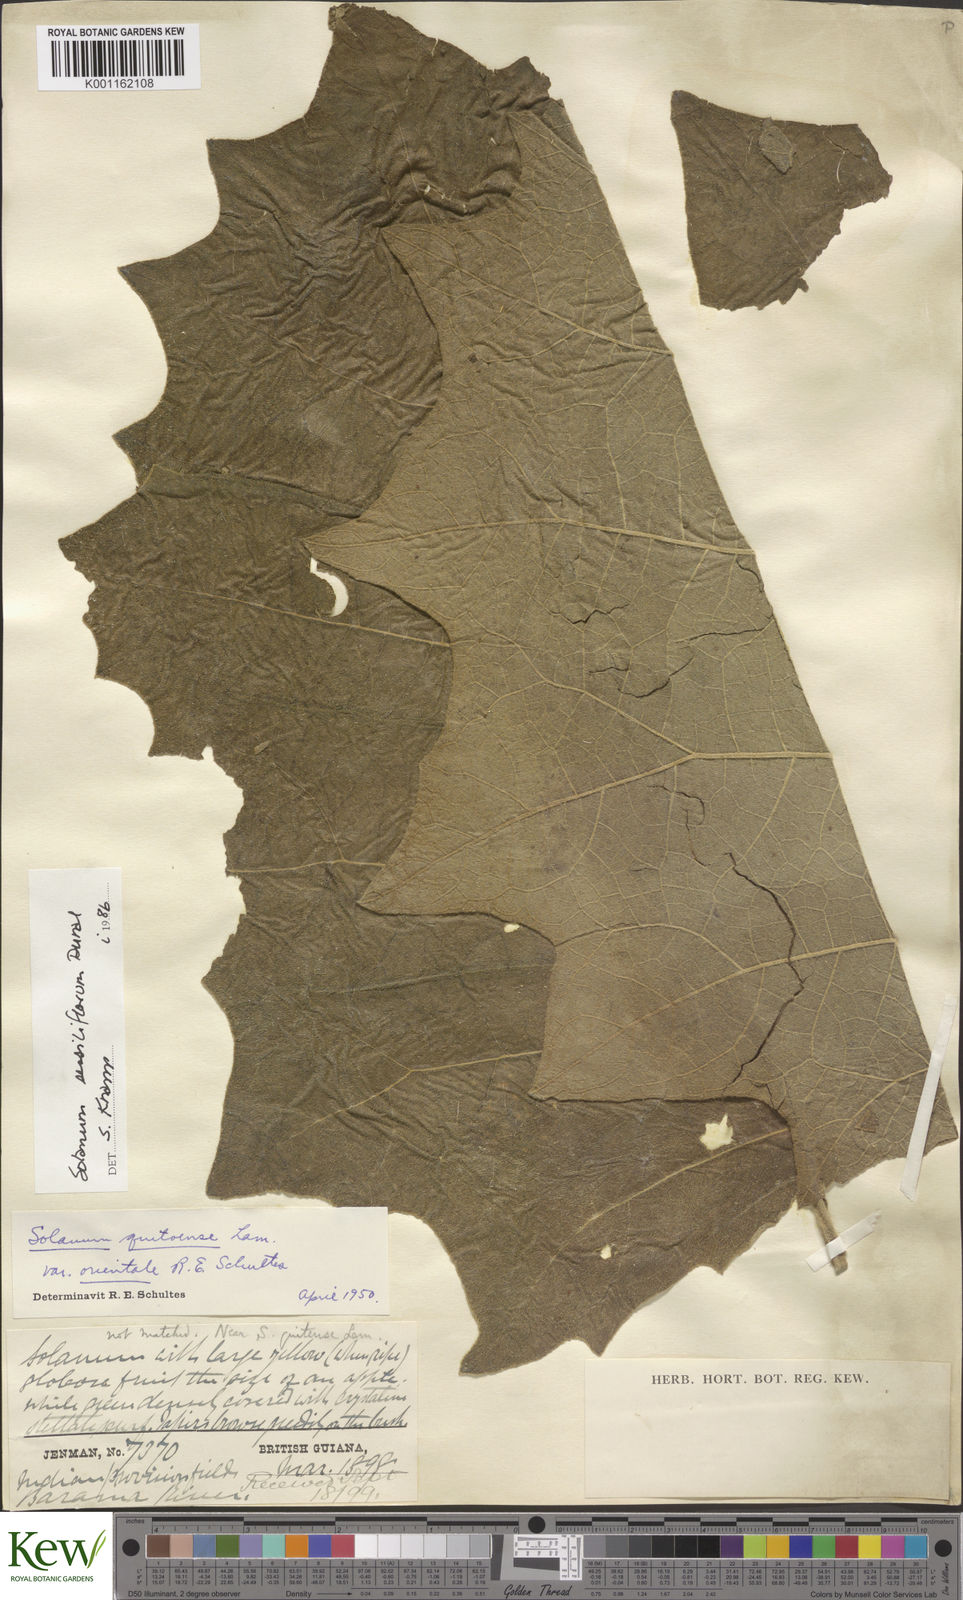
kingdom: Plantae
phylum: Tracheophyta
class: Magnoliopsida
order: Solanales
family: Solanaceae
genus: Solanum
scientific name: Solanum sessiliflorum
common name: Orinoco-apple
